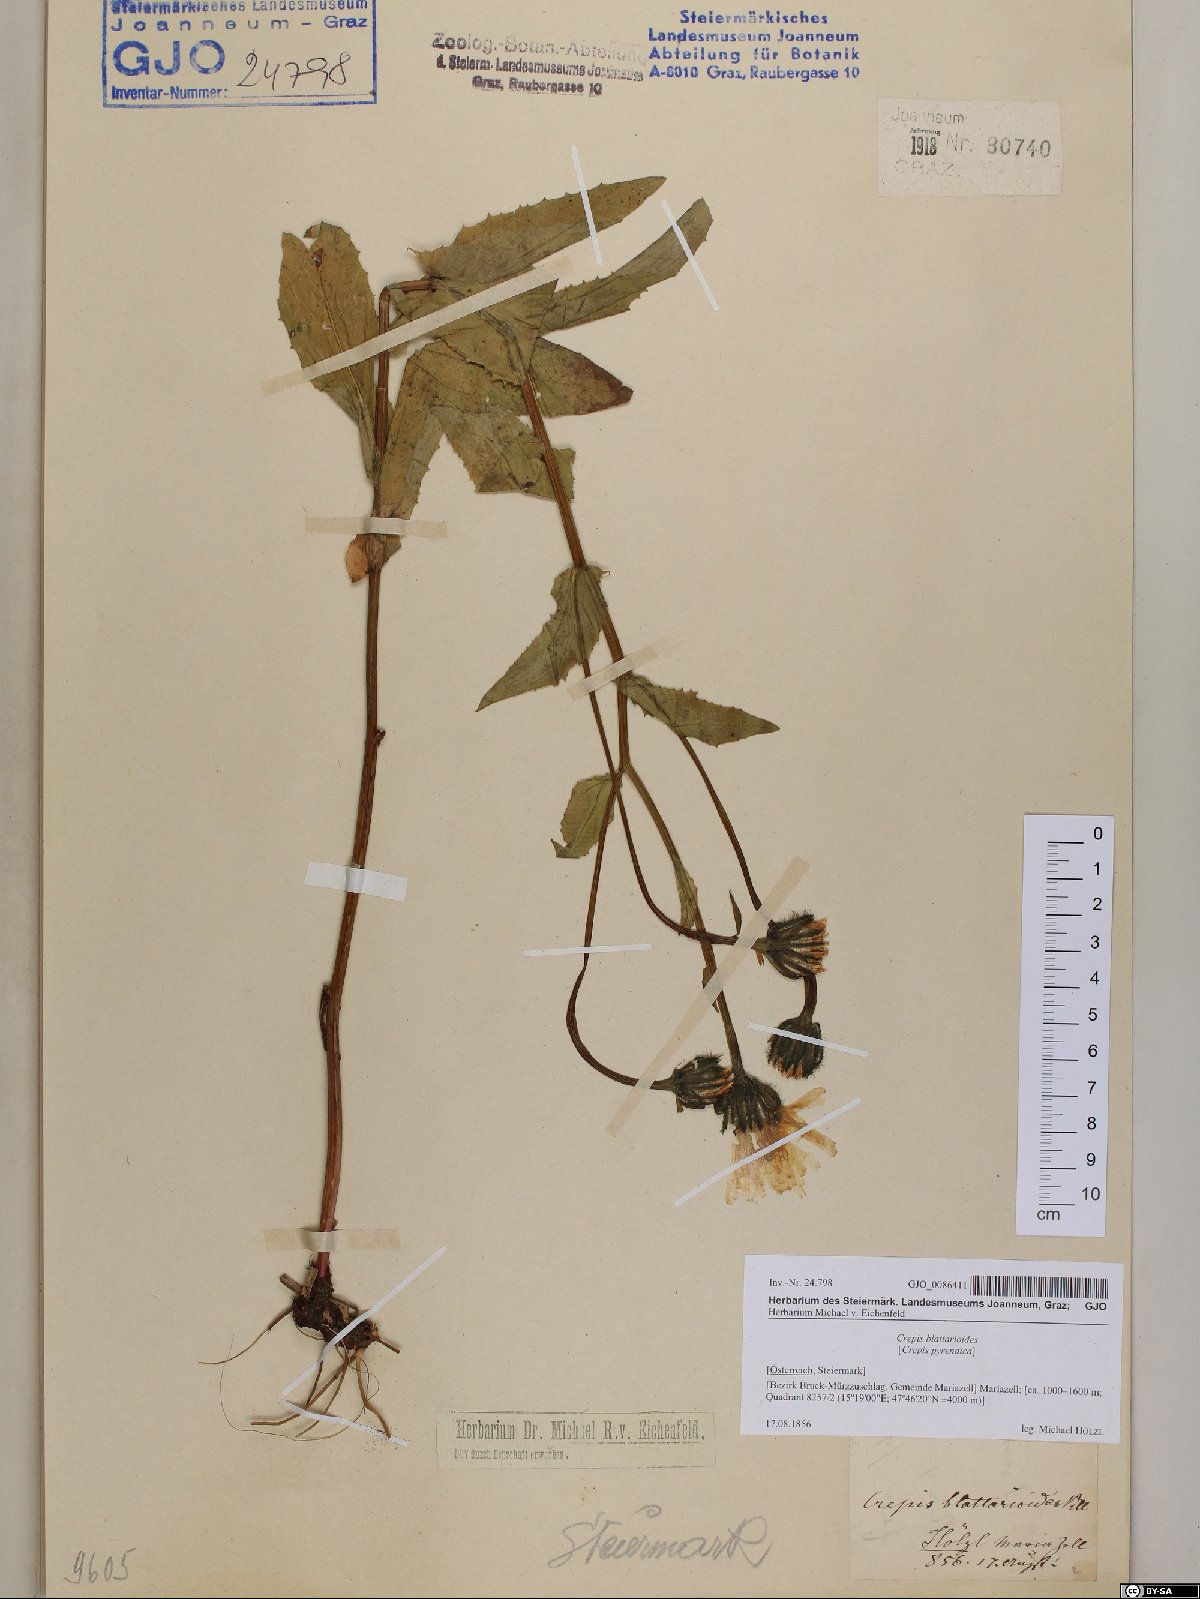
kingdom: Plantae
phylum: Tracheophyta
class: Magnoliopsida
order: Asterales
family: Asteraceae
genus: Crepis
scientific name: Crepis blattarioides
